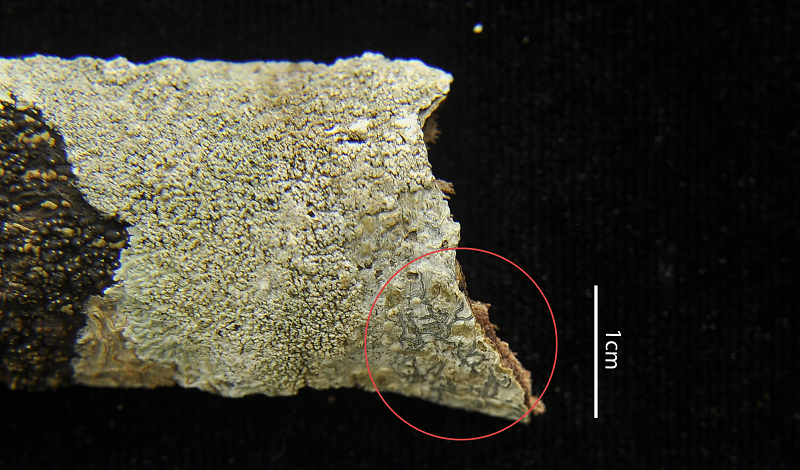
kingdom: Fungi
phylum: Ascomycota
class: Lecanoromycetes
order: Ostropales
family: Graphidaceae
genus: Phaeographis
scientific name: Phaeographis lindigiana
